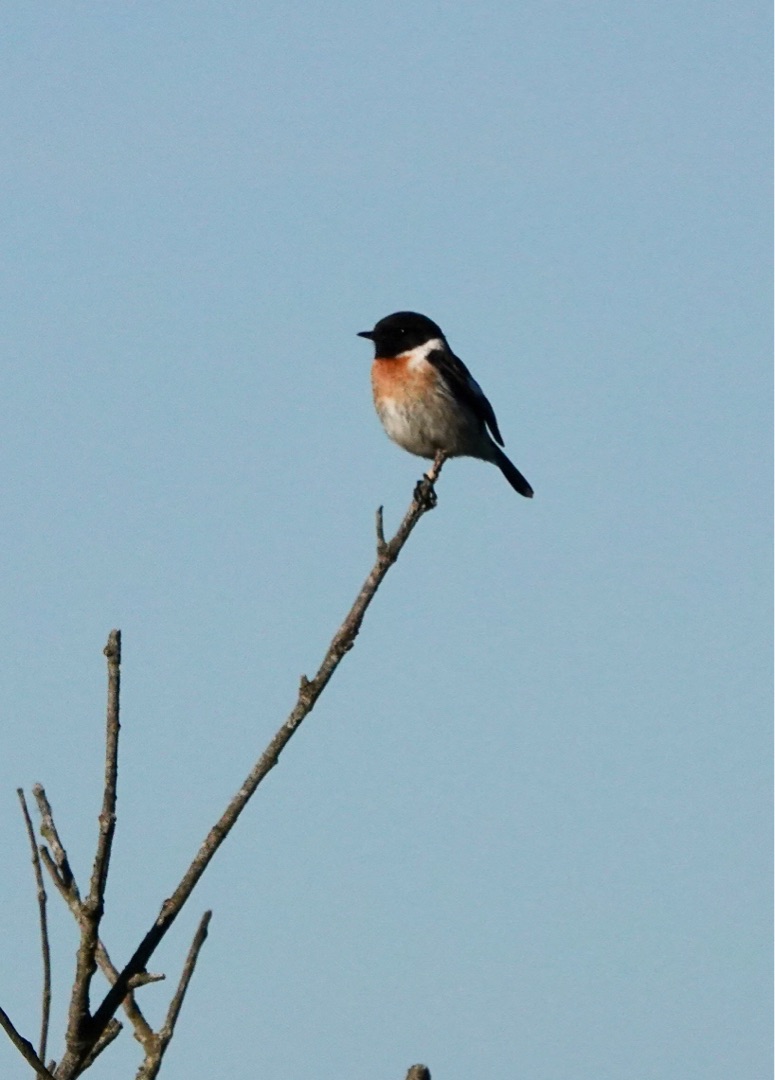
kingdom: Animalia
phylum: Chordata
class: Aves
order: Passeriformes
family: Muscicapidae
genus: Saxicola
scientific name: Saxicola rubicola
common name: Sortstrubet bynkefugl
